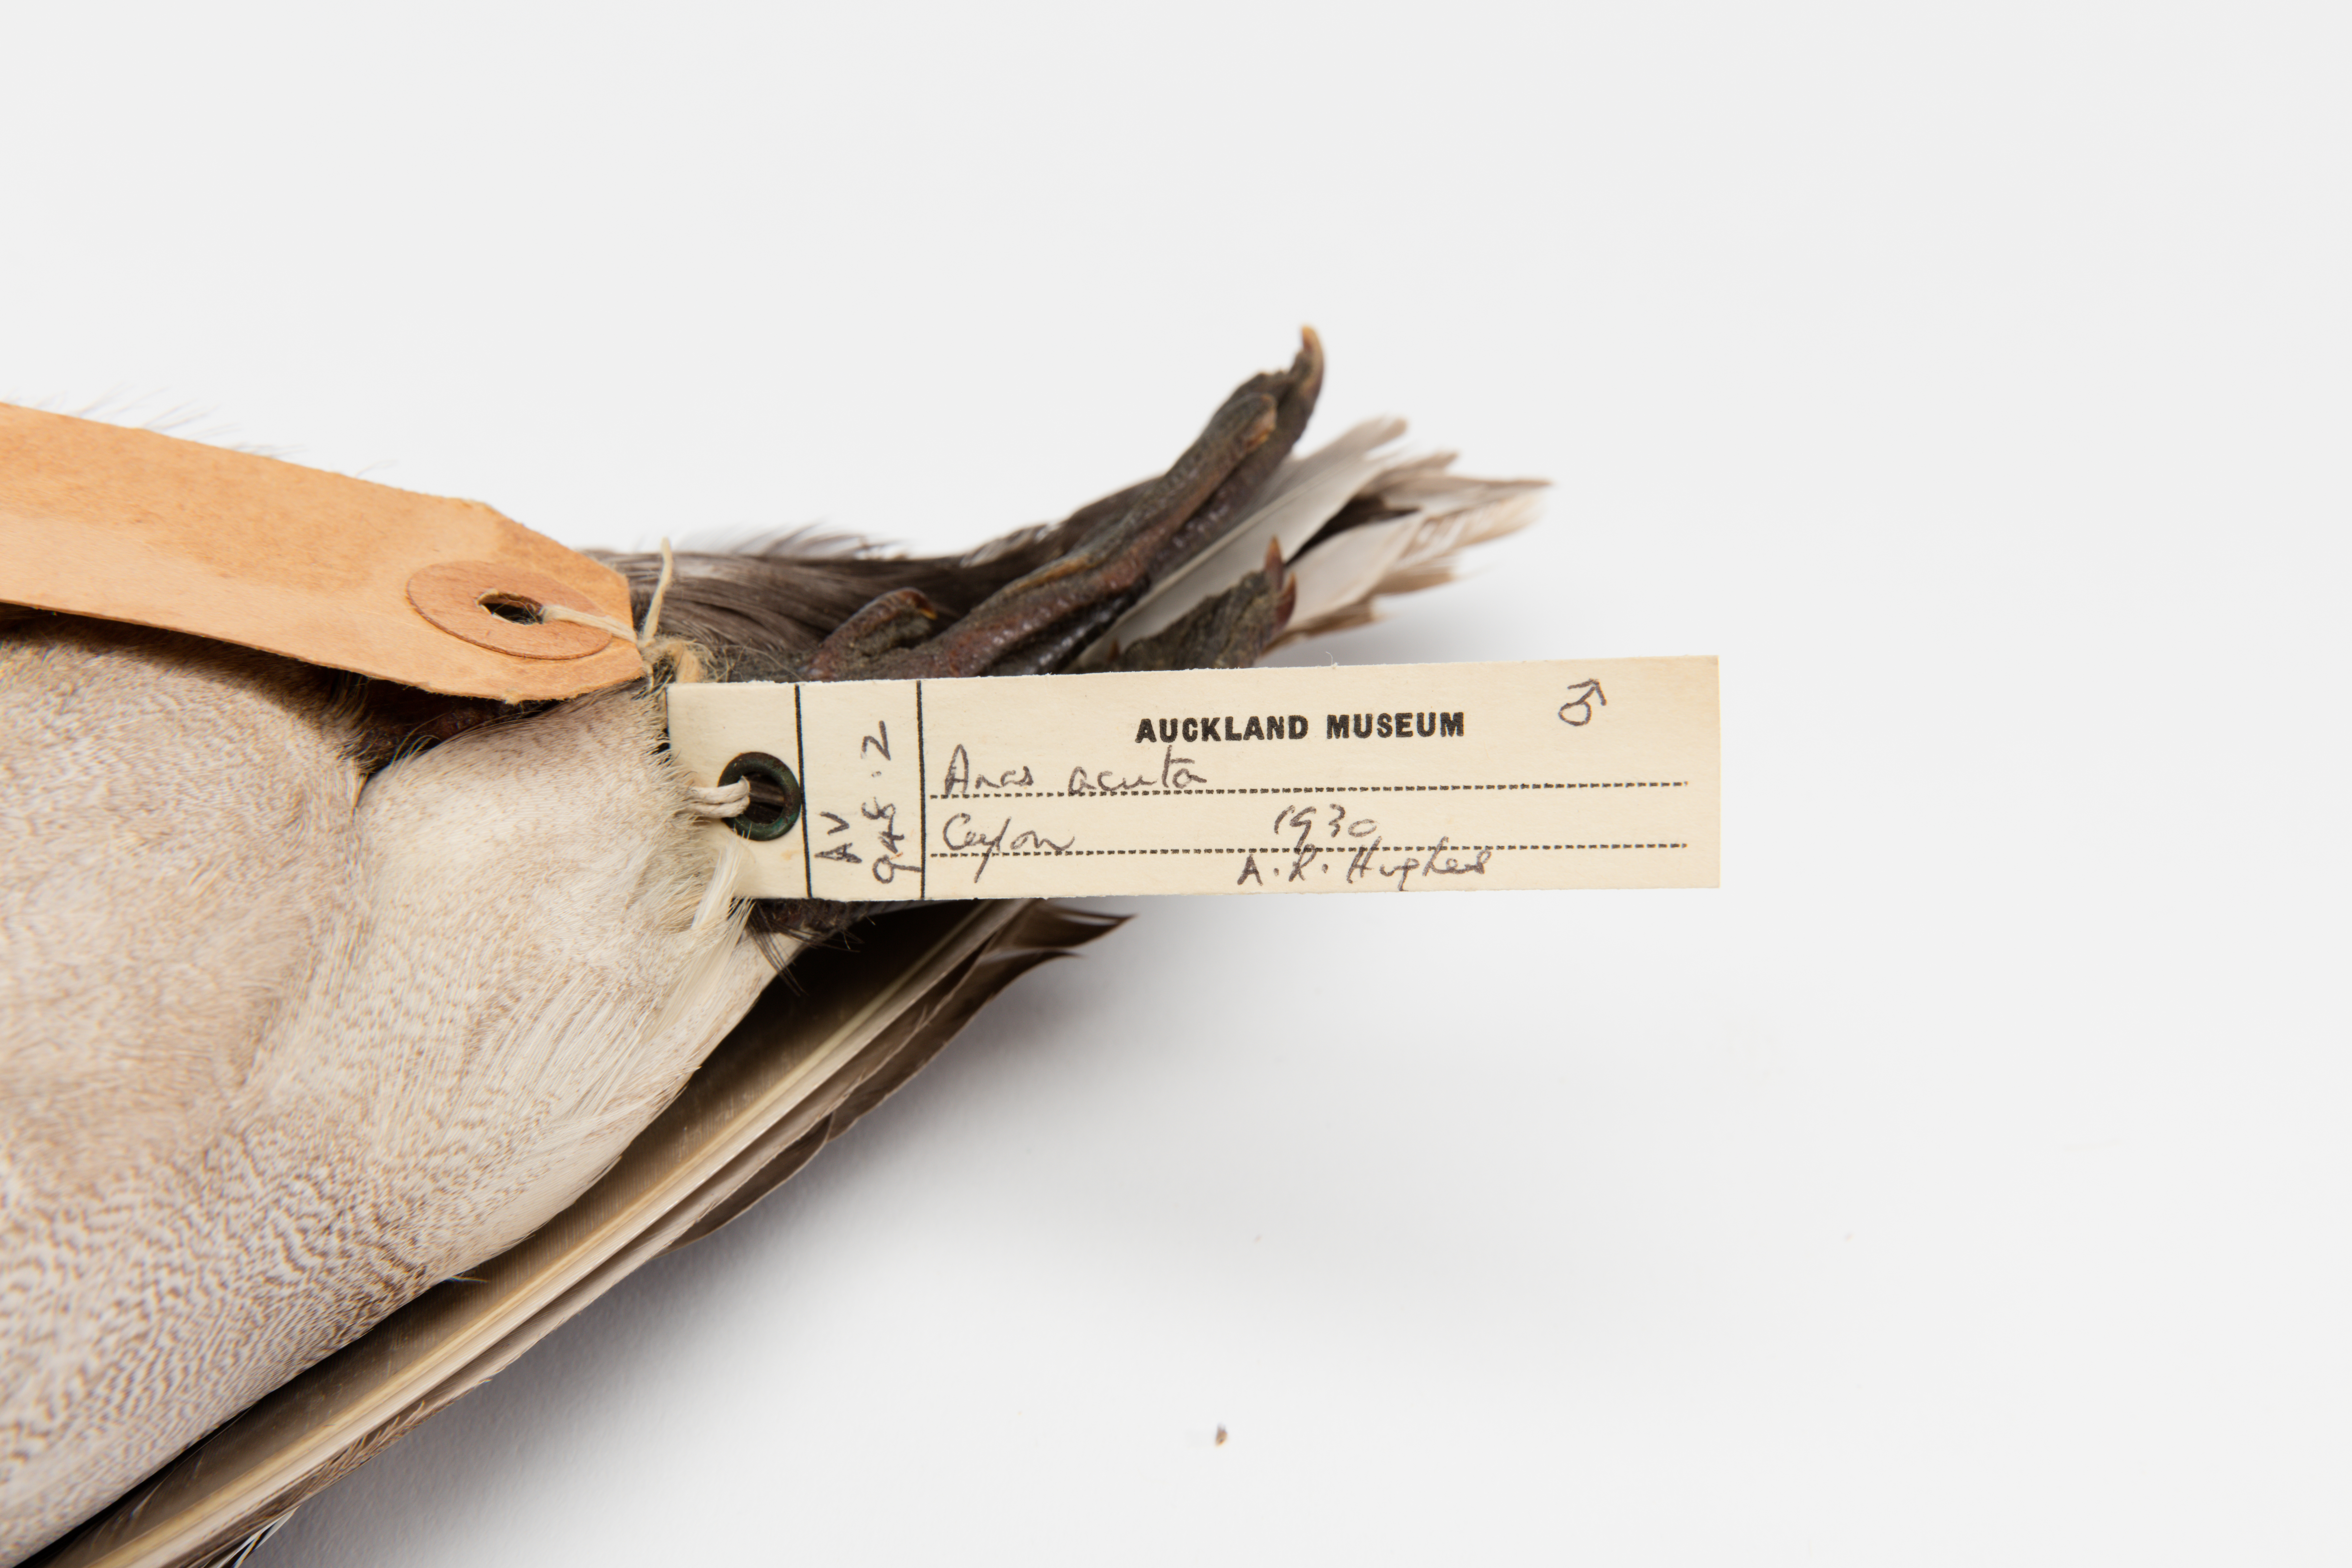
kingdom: Animalia
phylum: Chordata
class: Aves
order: Anseriformes
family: Anatidae
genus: Anas
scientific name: Anas acuta
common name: Northern pintail
